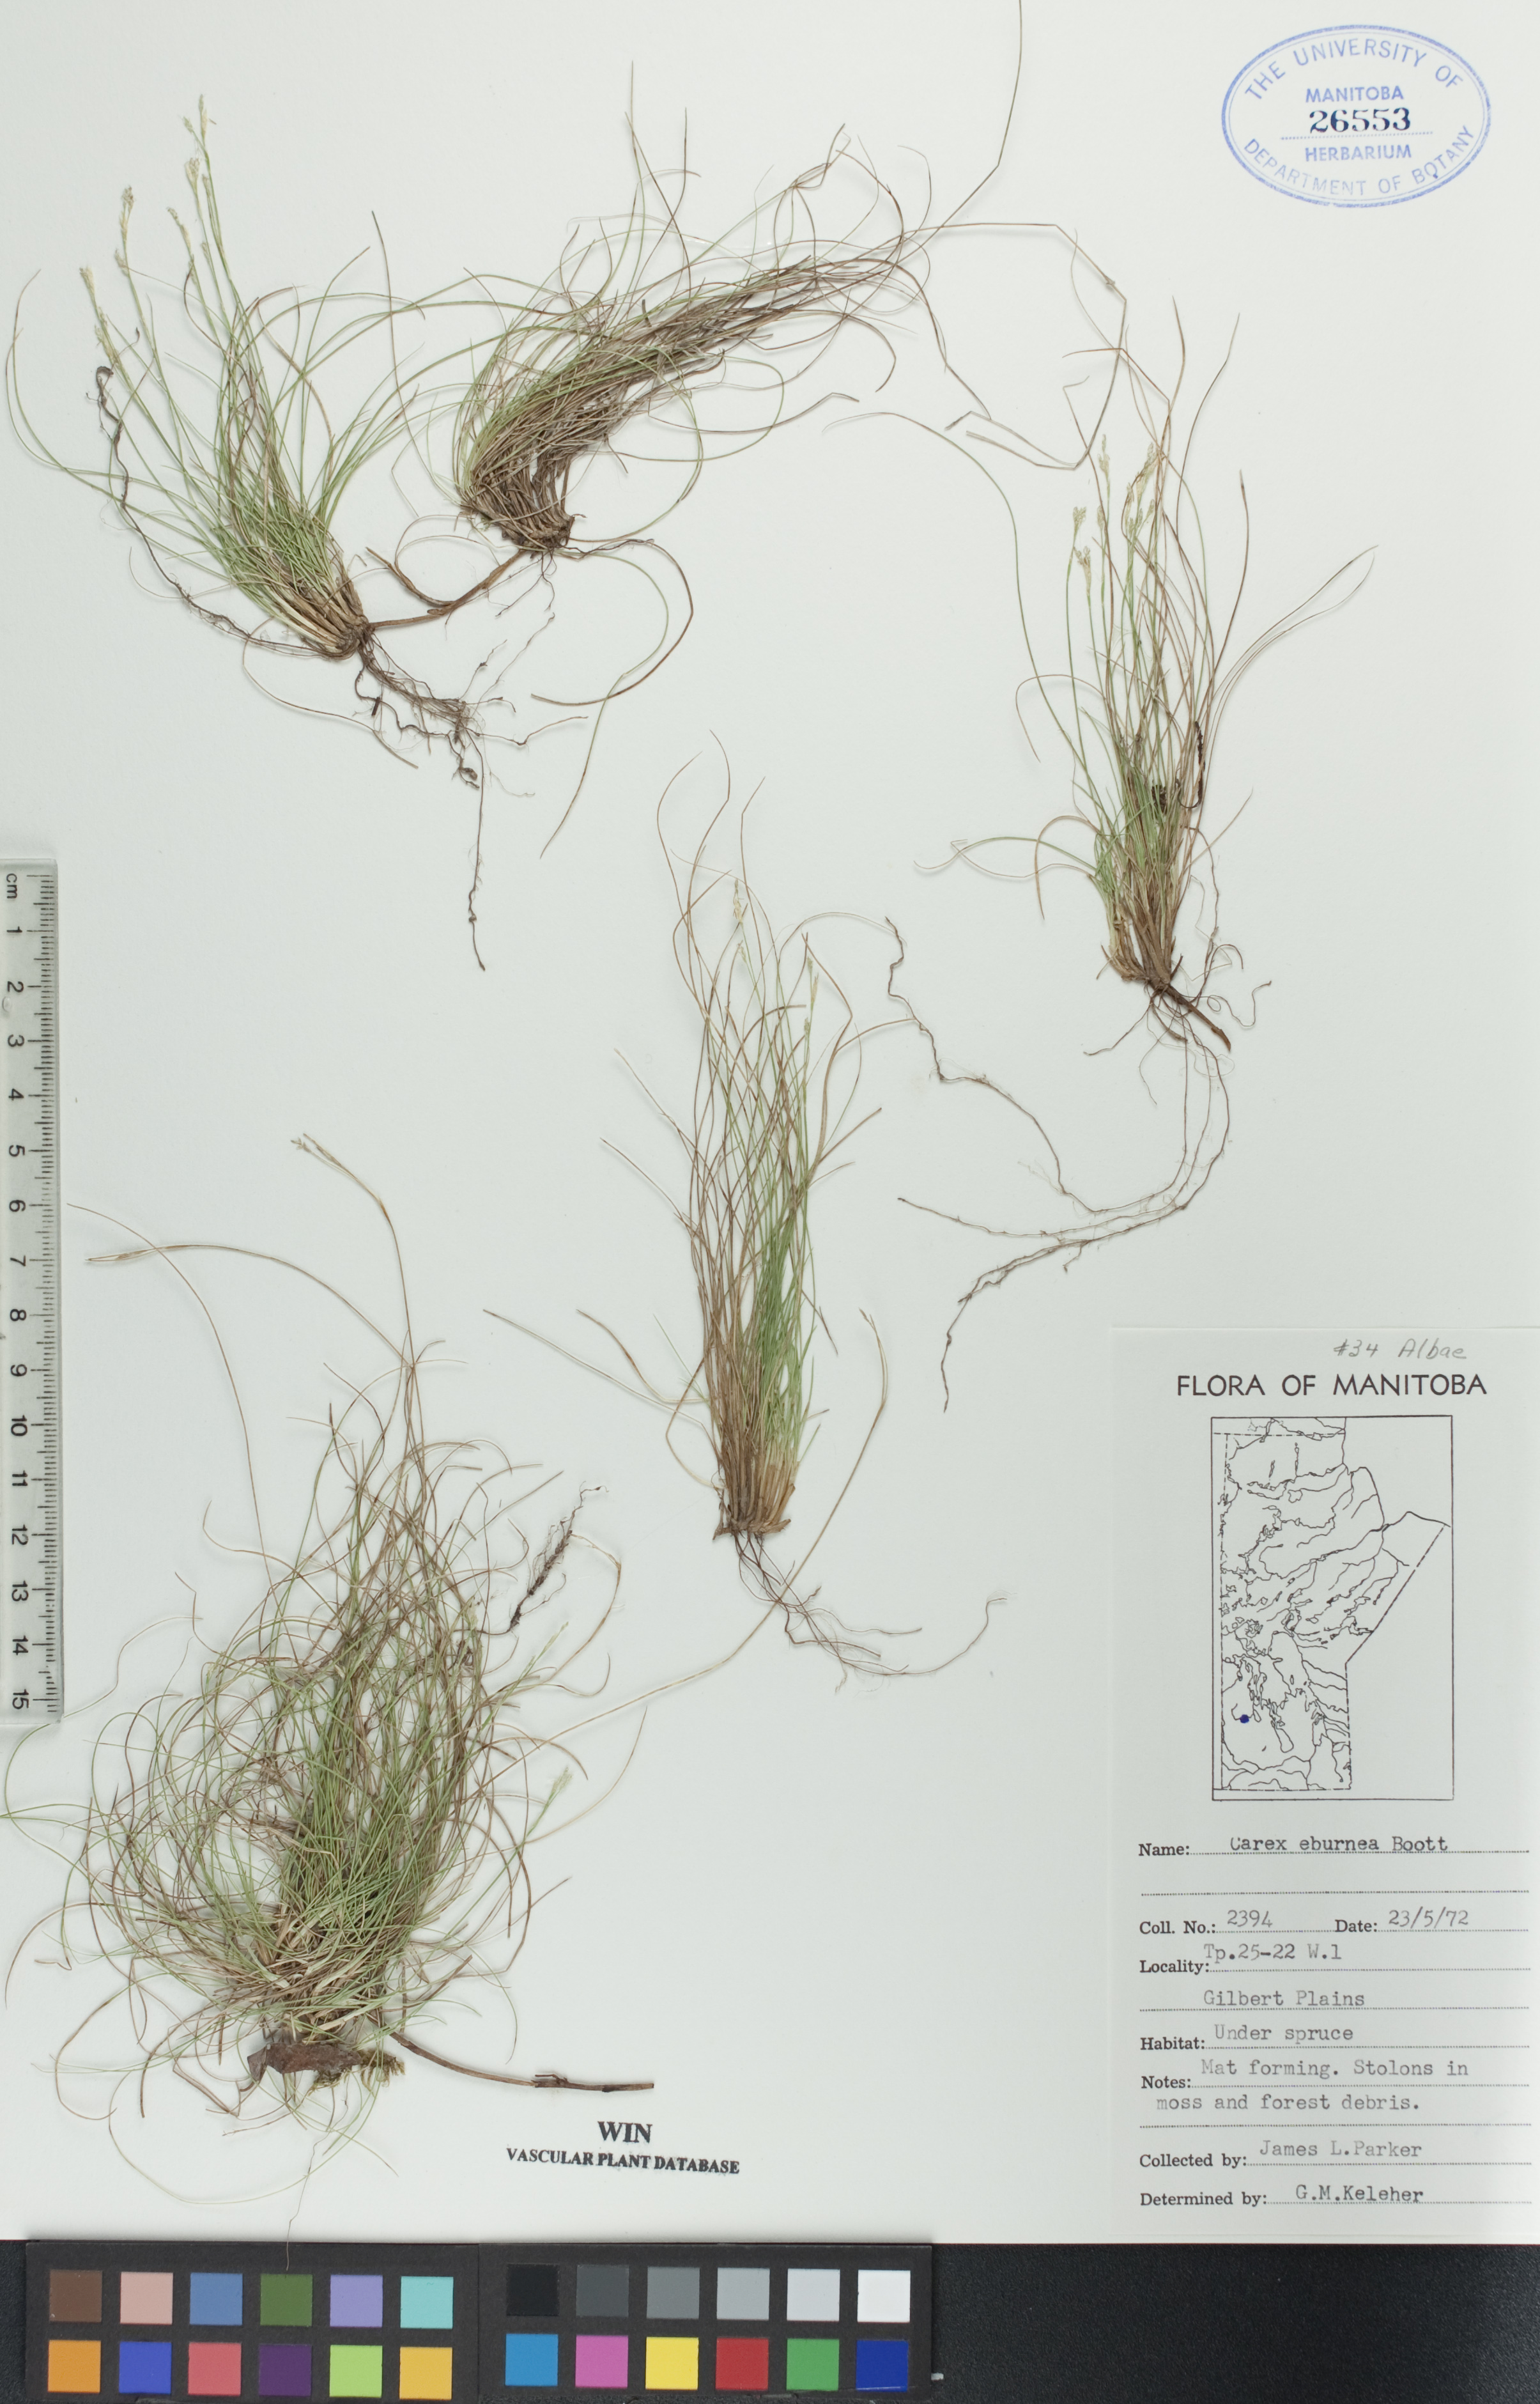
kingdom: Plantae
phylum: Tracheophyta
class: Liliopsida
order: Poales
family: Cyperaceae
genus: Carex
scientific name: Carex eburnea
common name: Bristle-leaved sedge
